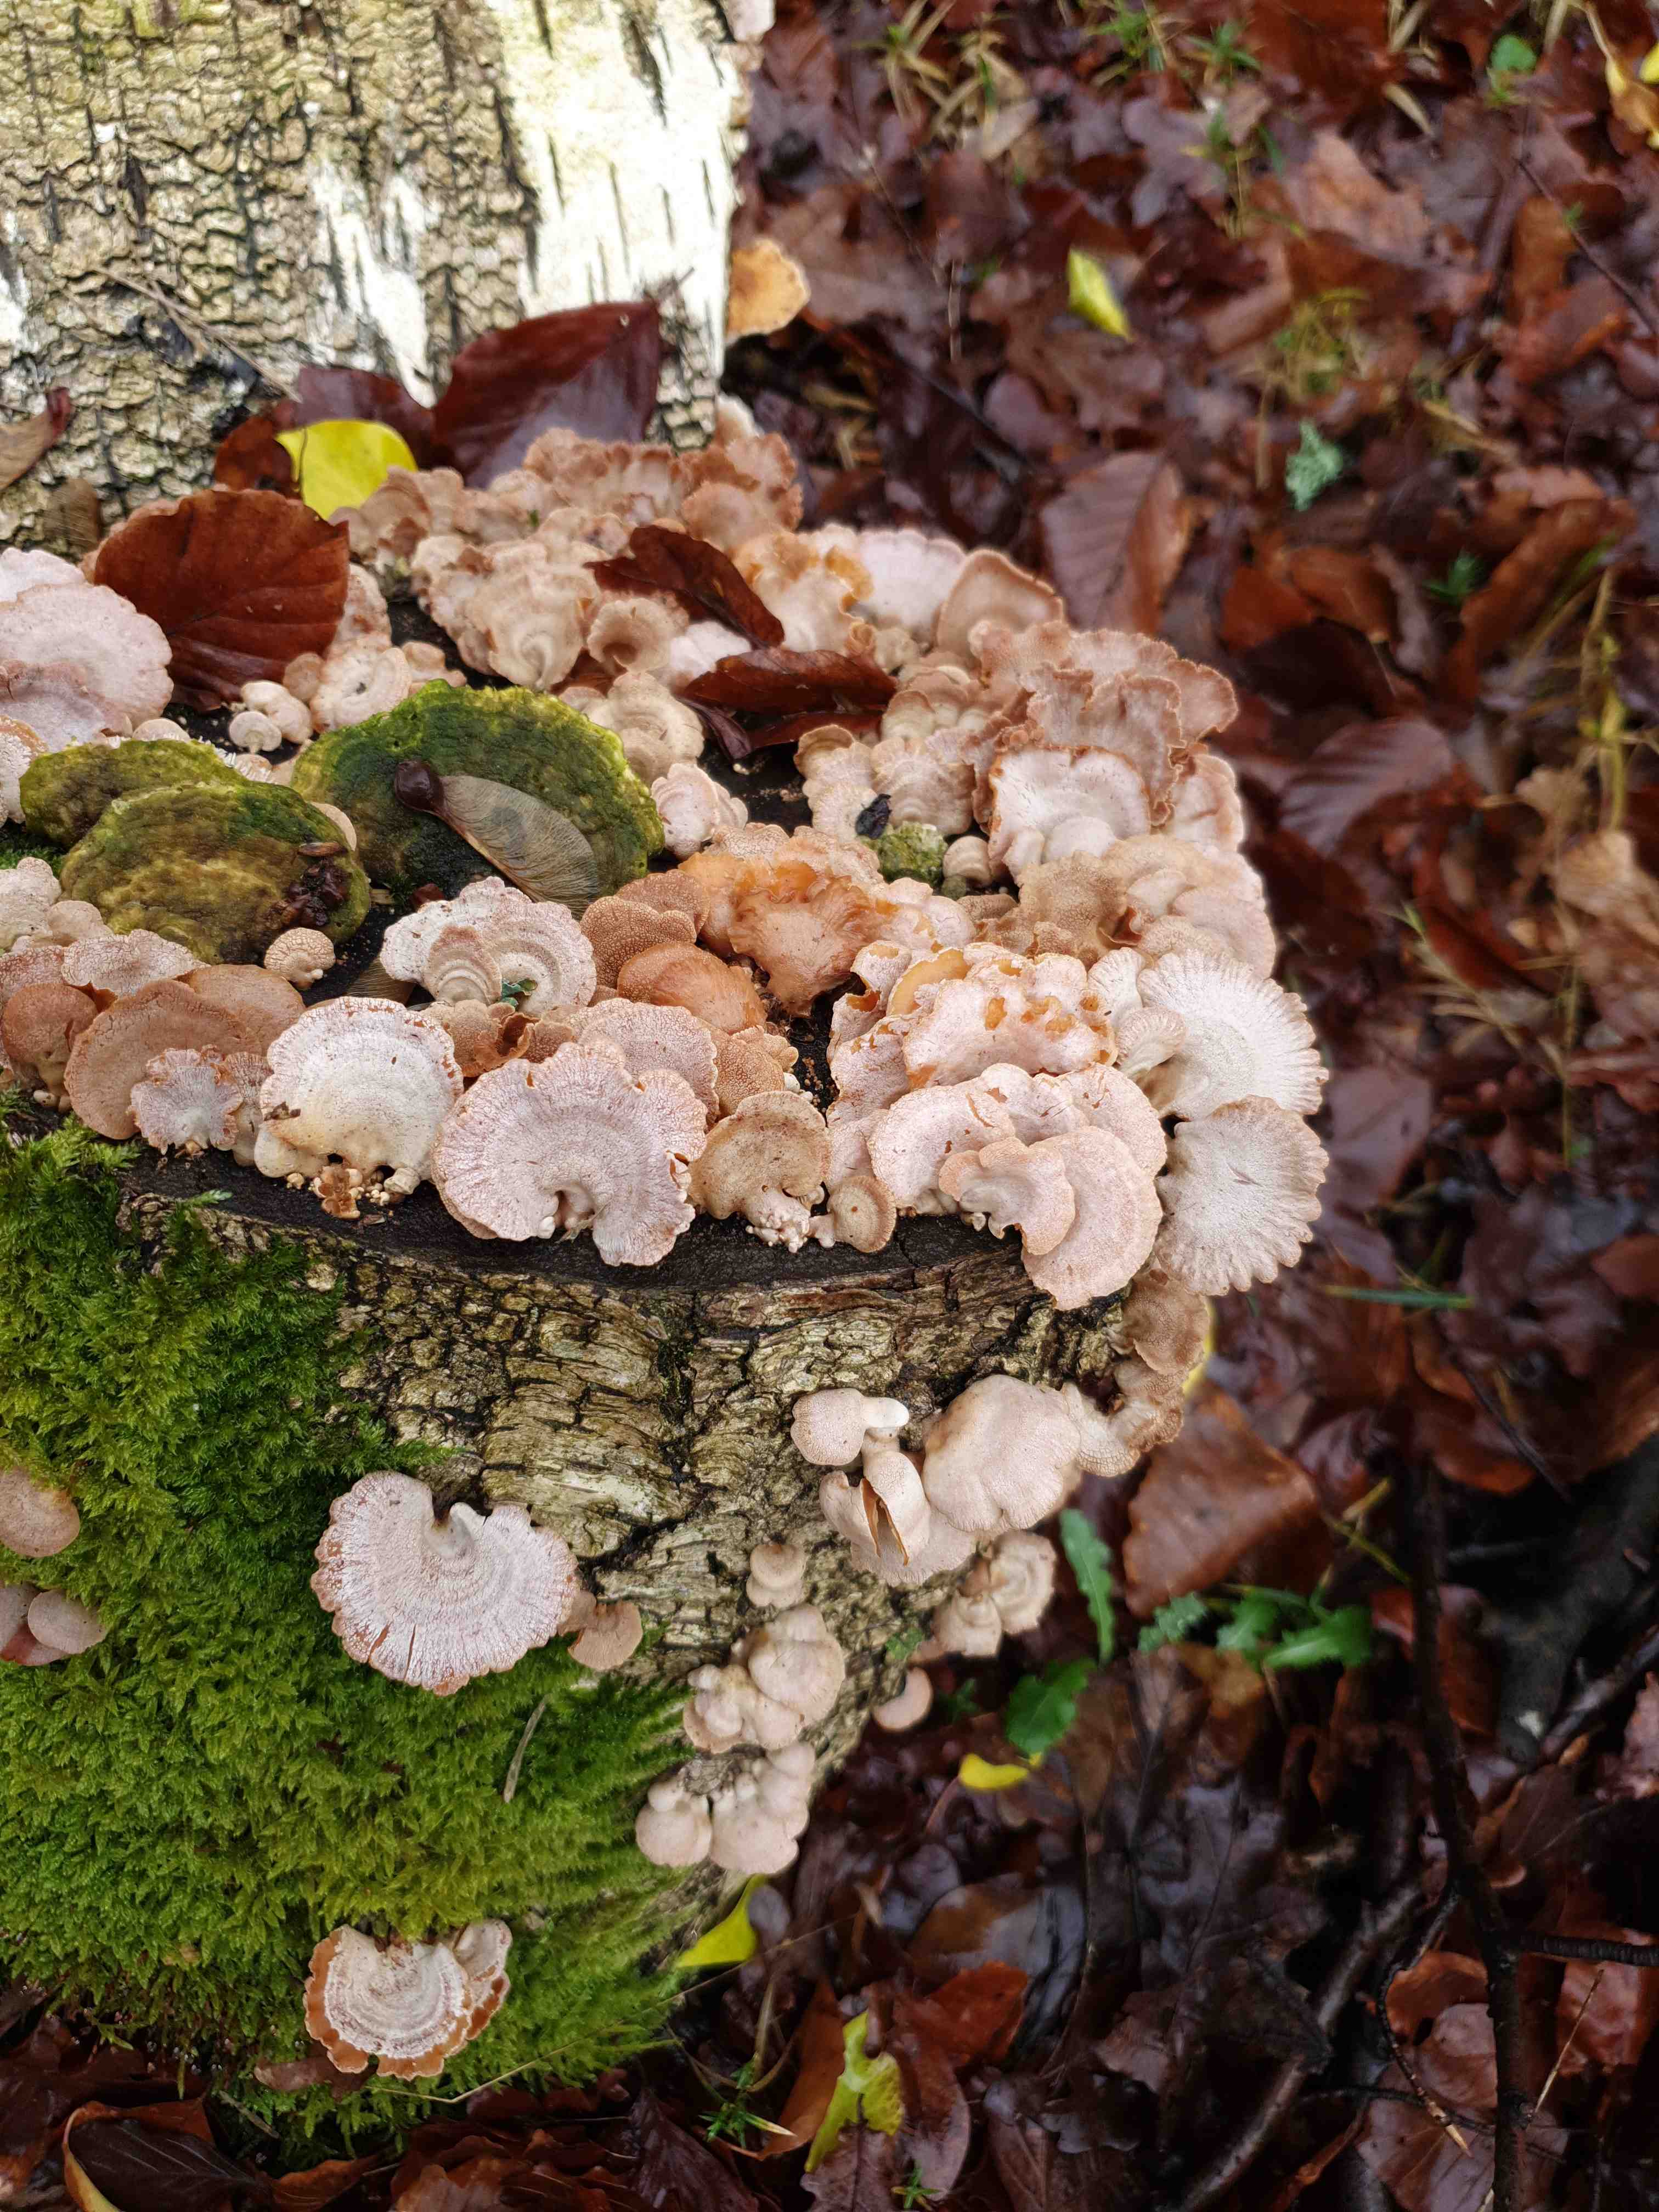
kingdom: Fungi
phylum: Basidiomycota
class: Agaricomycetes
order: Agaricales
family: Mycenaceae
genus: Panellus
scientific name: Panellus stipticus
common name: kliddet epaulethat
